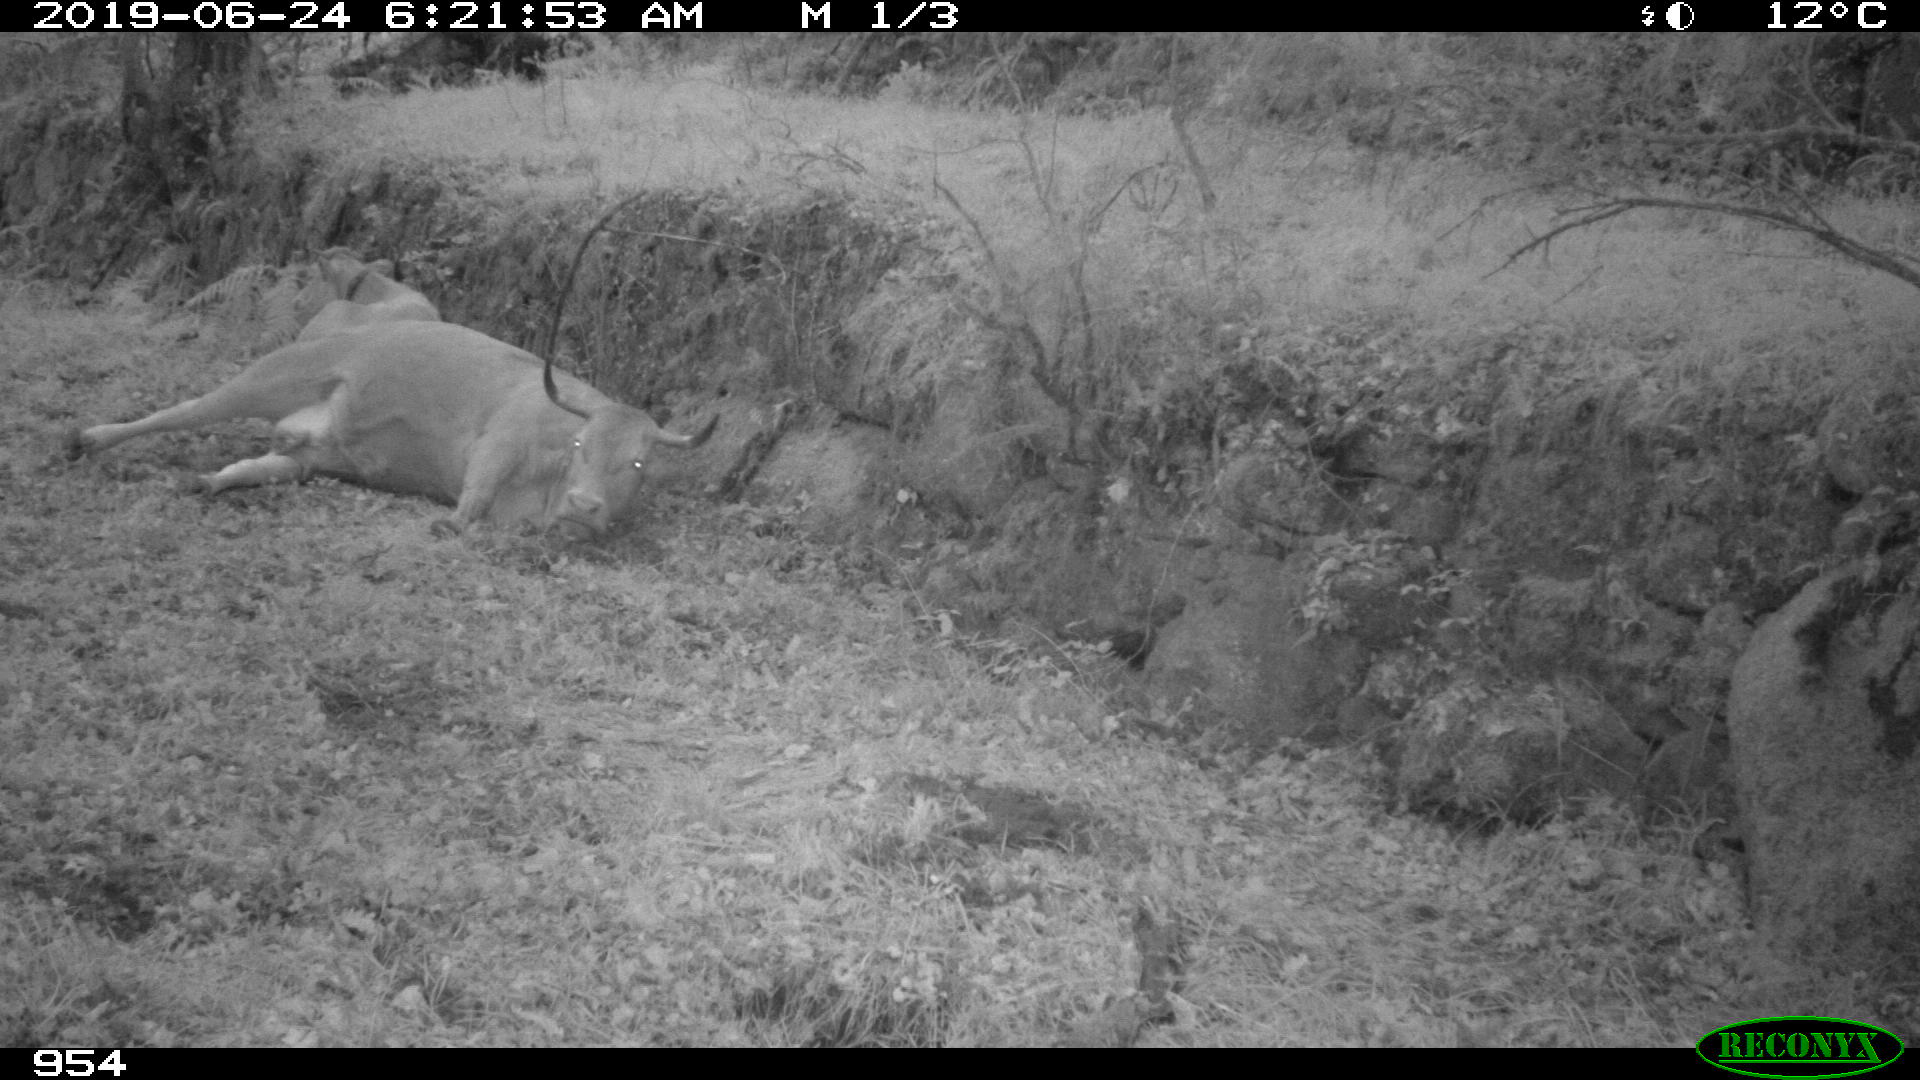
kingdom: Animalia
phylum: Chordata
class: Mammalia
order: Artiodactyla
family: Bovidae
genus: Bos
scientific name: Bos taurus
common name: Domesticated cattle
